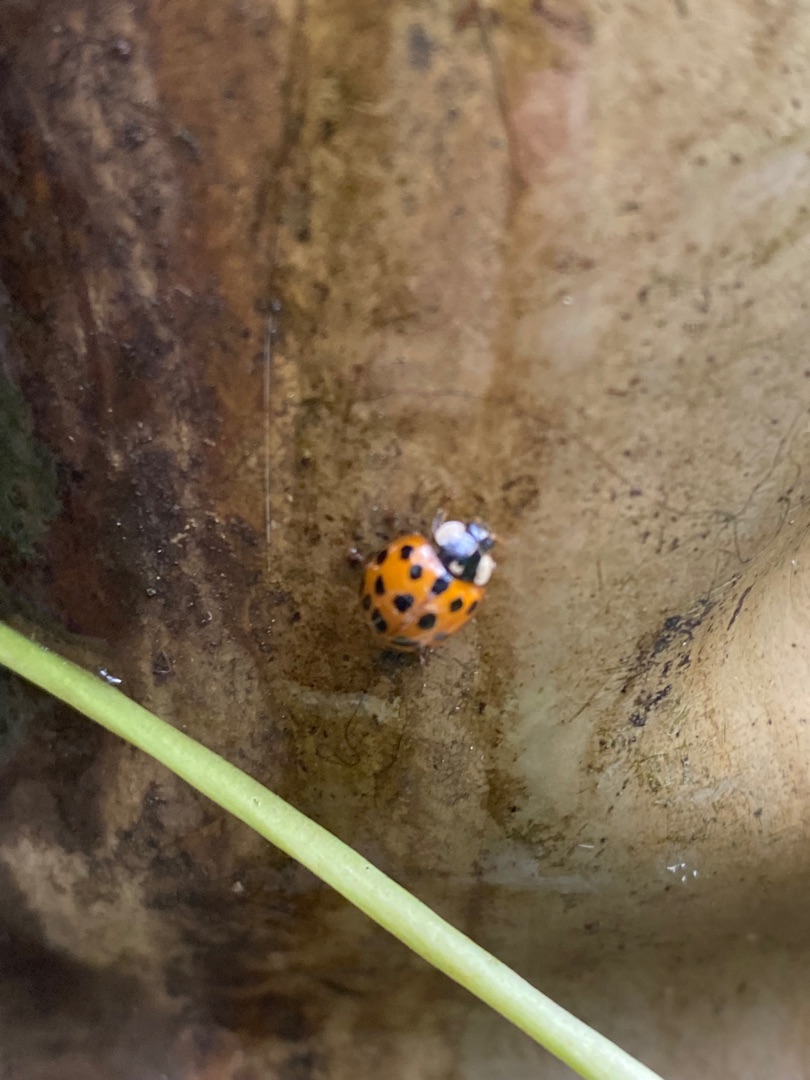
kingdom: Animalia
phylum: Arthropoda
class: Insecta
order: Coleoptera
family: Coccinellidae
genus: Harmonia
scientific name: Harmonia axyridis
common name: Harlekinmariehøne
